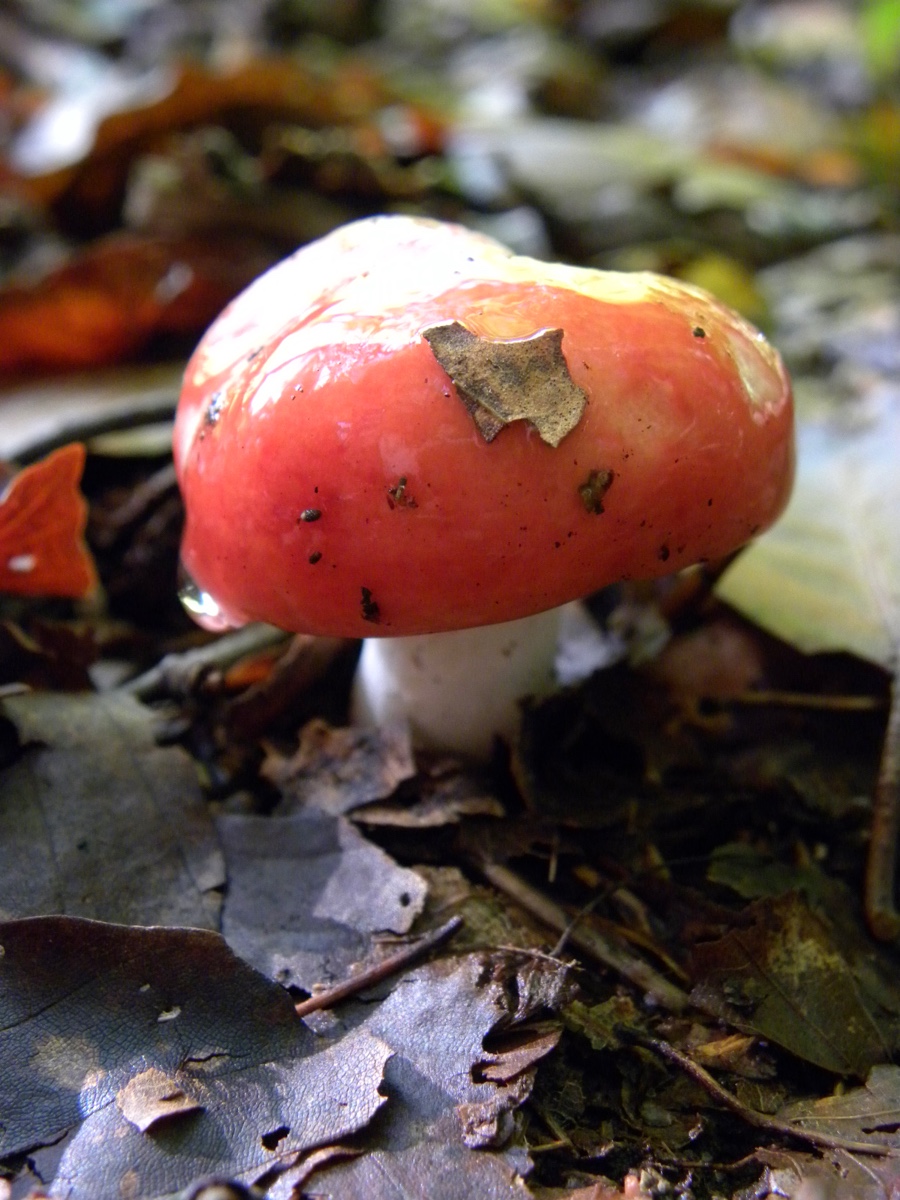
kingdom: Fungi
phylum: Basidiomycota
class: Agaricomycetes
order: Russulales
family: Russulaceae
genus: Russula
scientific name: Russula
